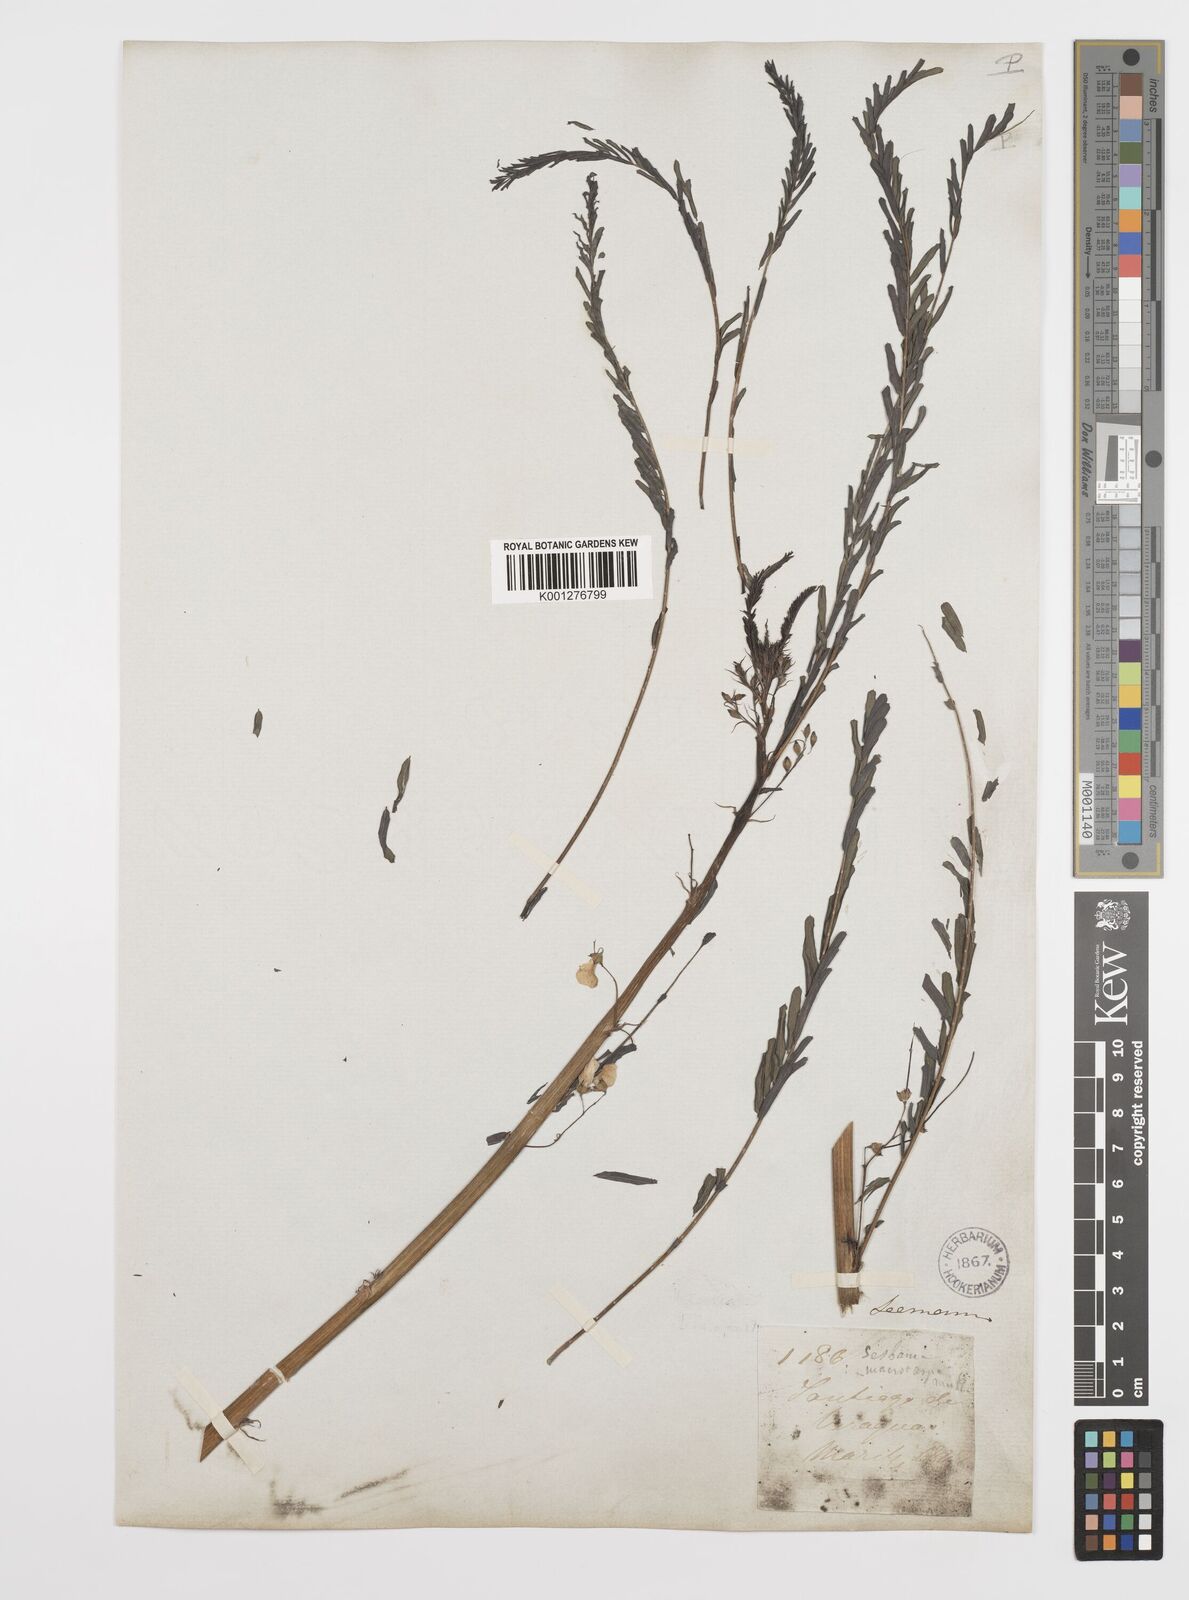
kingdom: Plantae
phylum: Tracheophyta
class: Magnoliopsida
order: Fabales
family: Fabaceae
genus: Sesbania
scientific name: Sesbania
